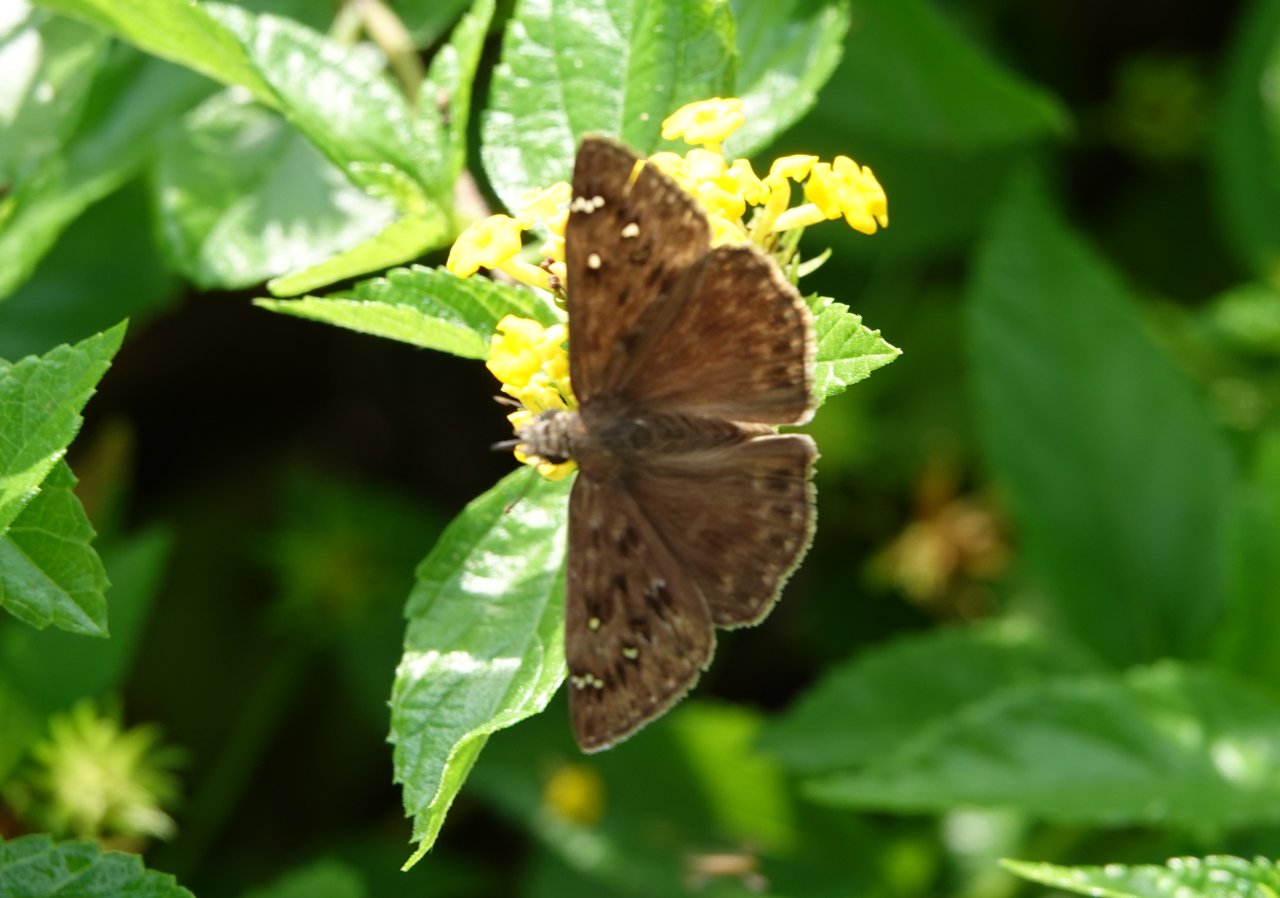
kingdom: Animalia
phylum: Arthropoda
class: Insecta
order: Lepidoptera
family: Hesperiidae
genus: Gesta
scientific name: Gesta
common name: Horace's Duskywing
